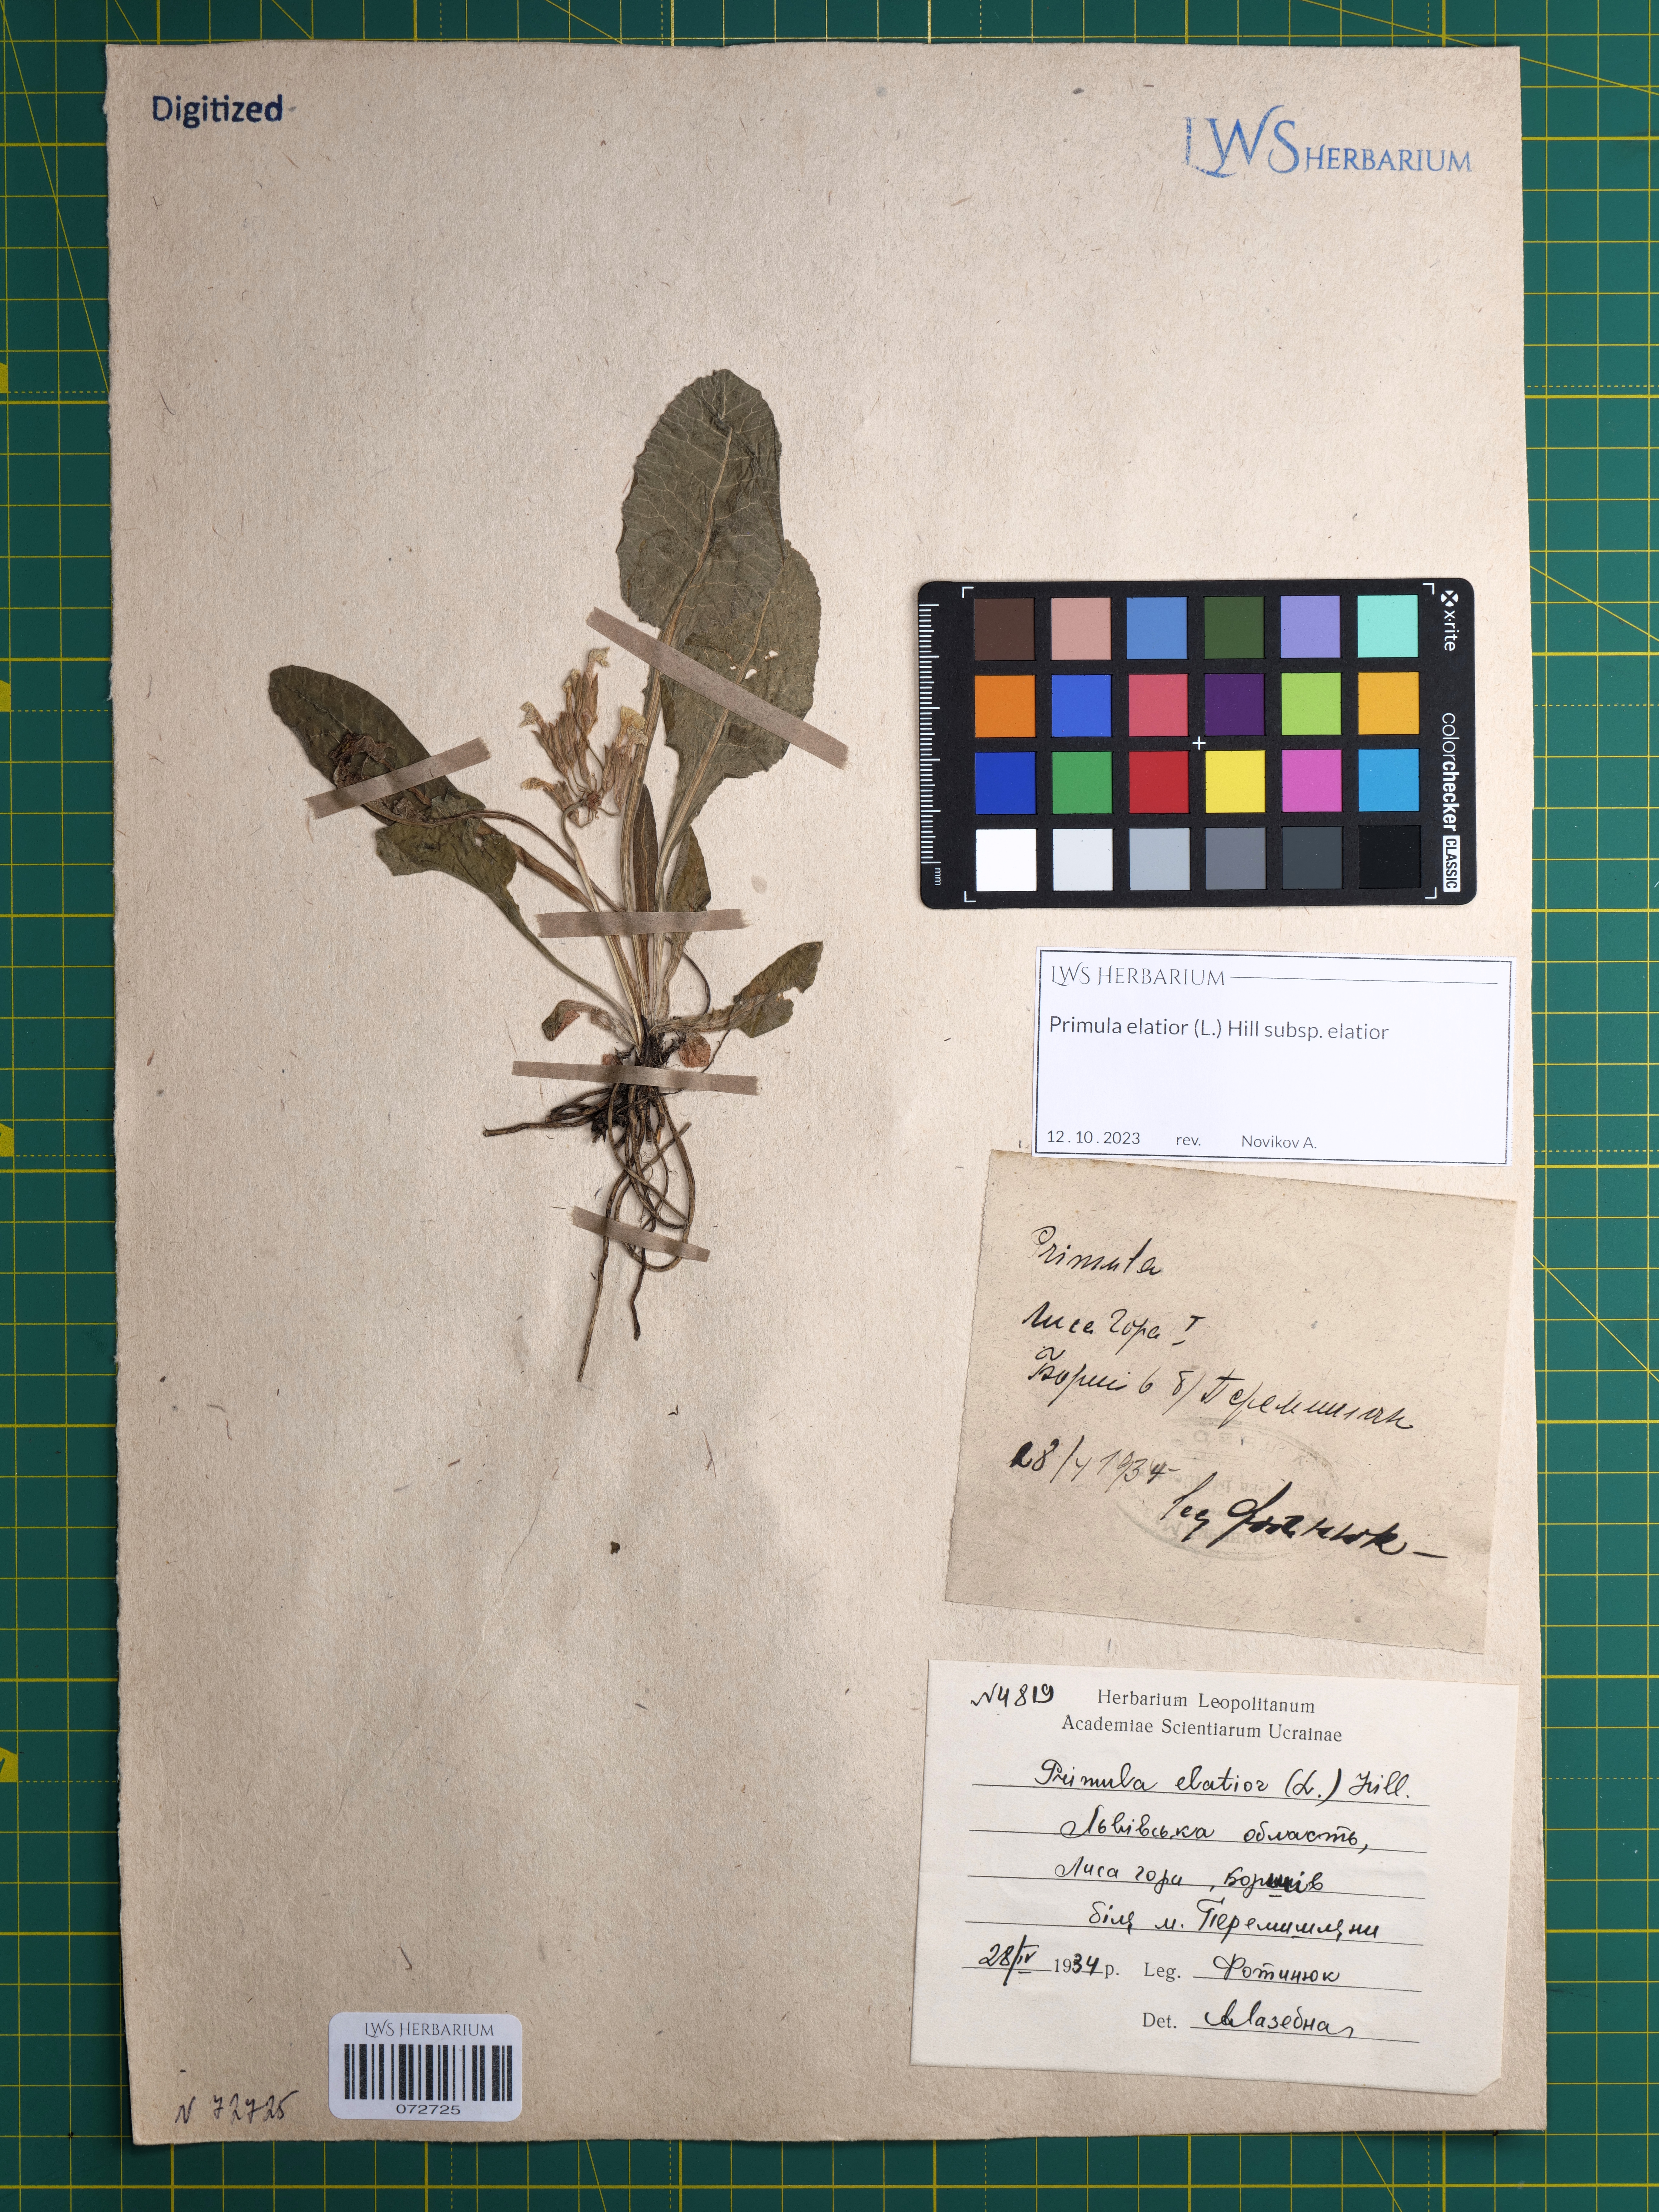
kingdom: Plantae
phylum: Tracheophyta
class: Magnoliopsida
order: Ericales
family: Primulaceae
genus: Primula
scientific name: Primula elatior
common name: Oxlip
